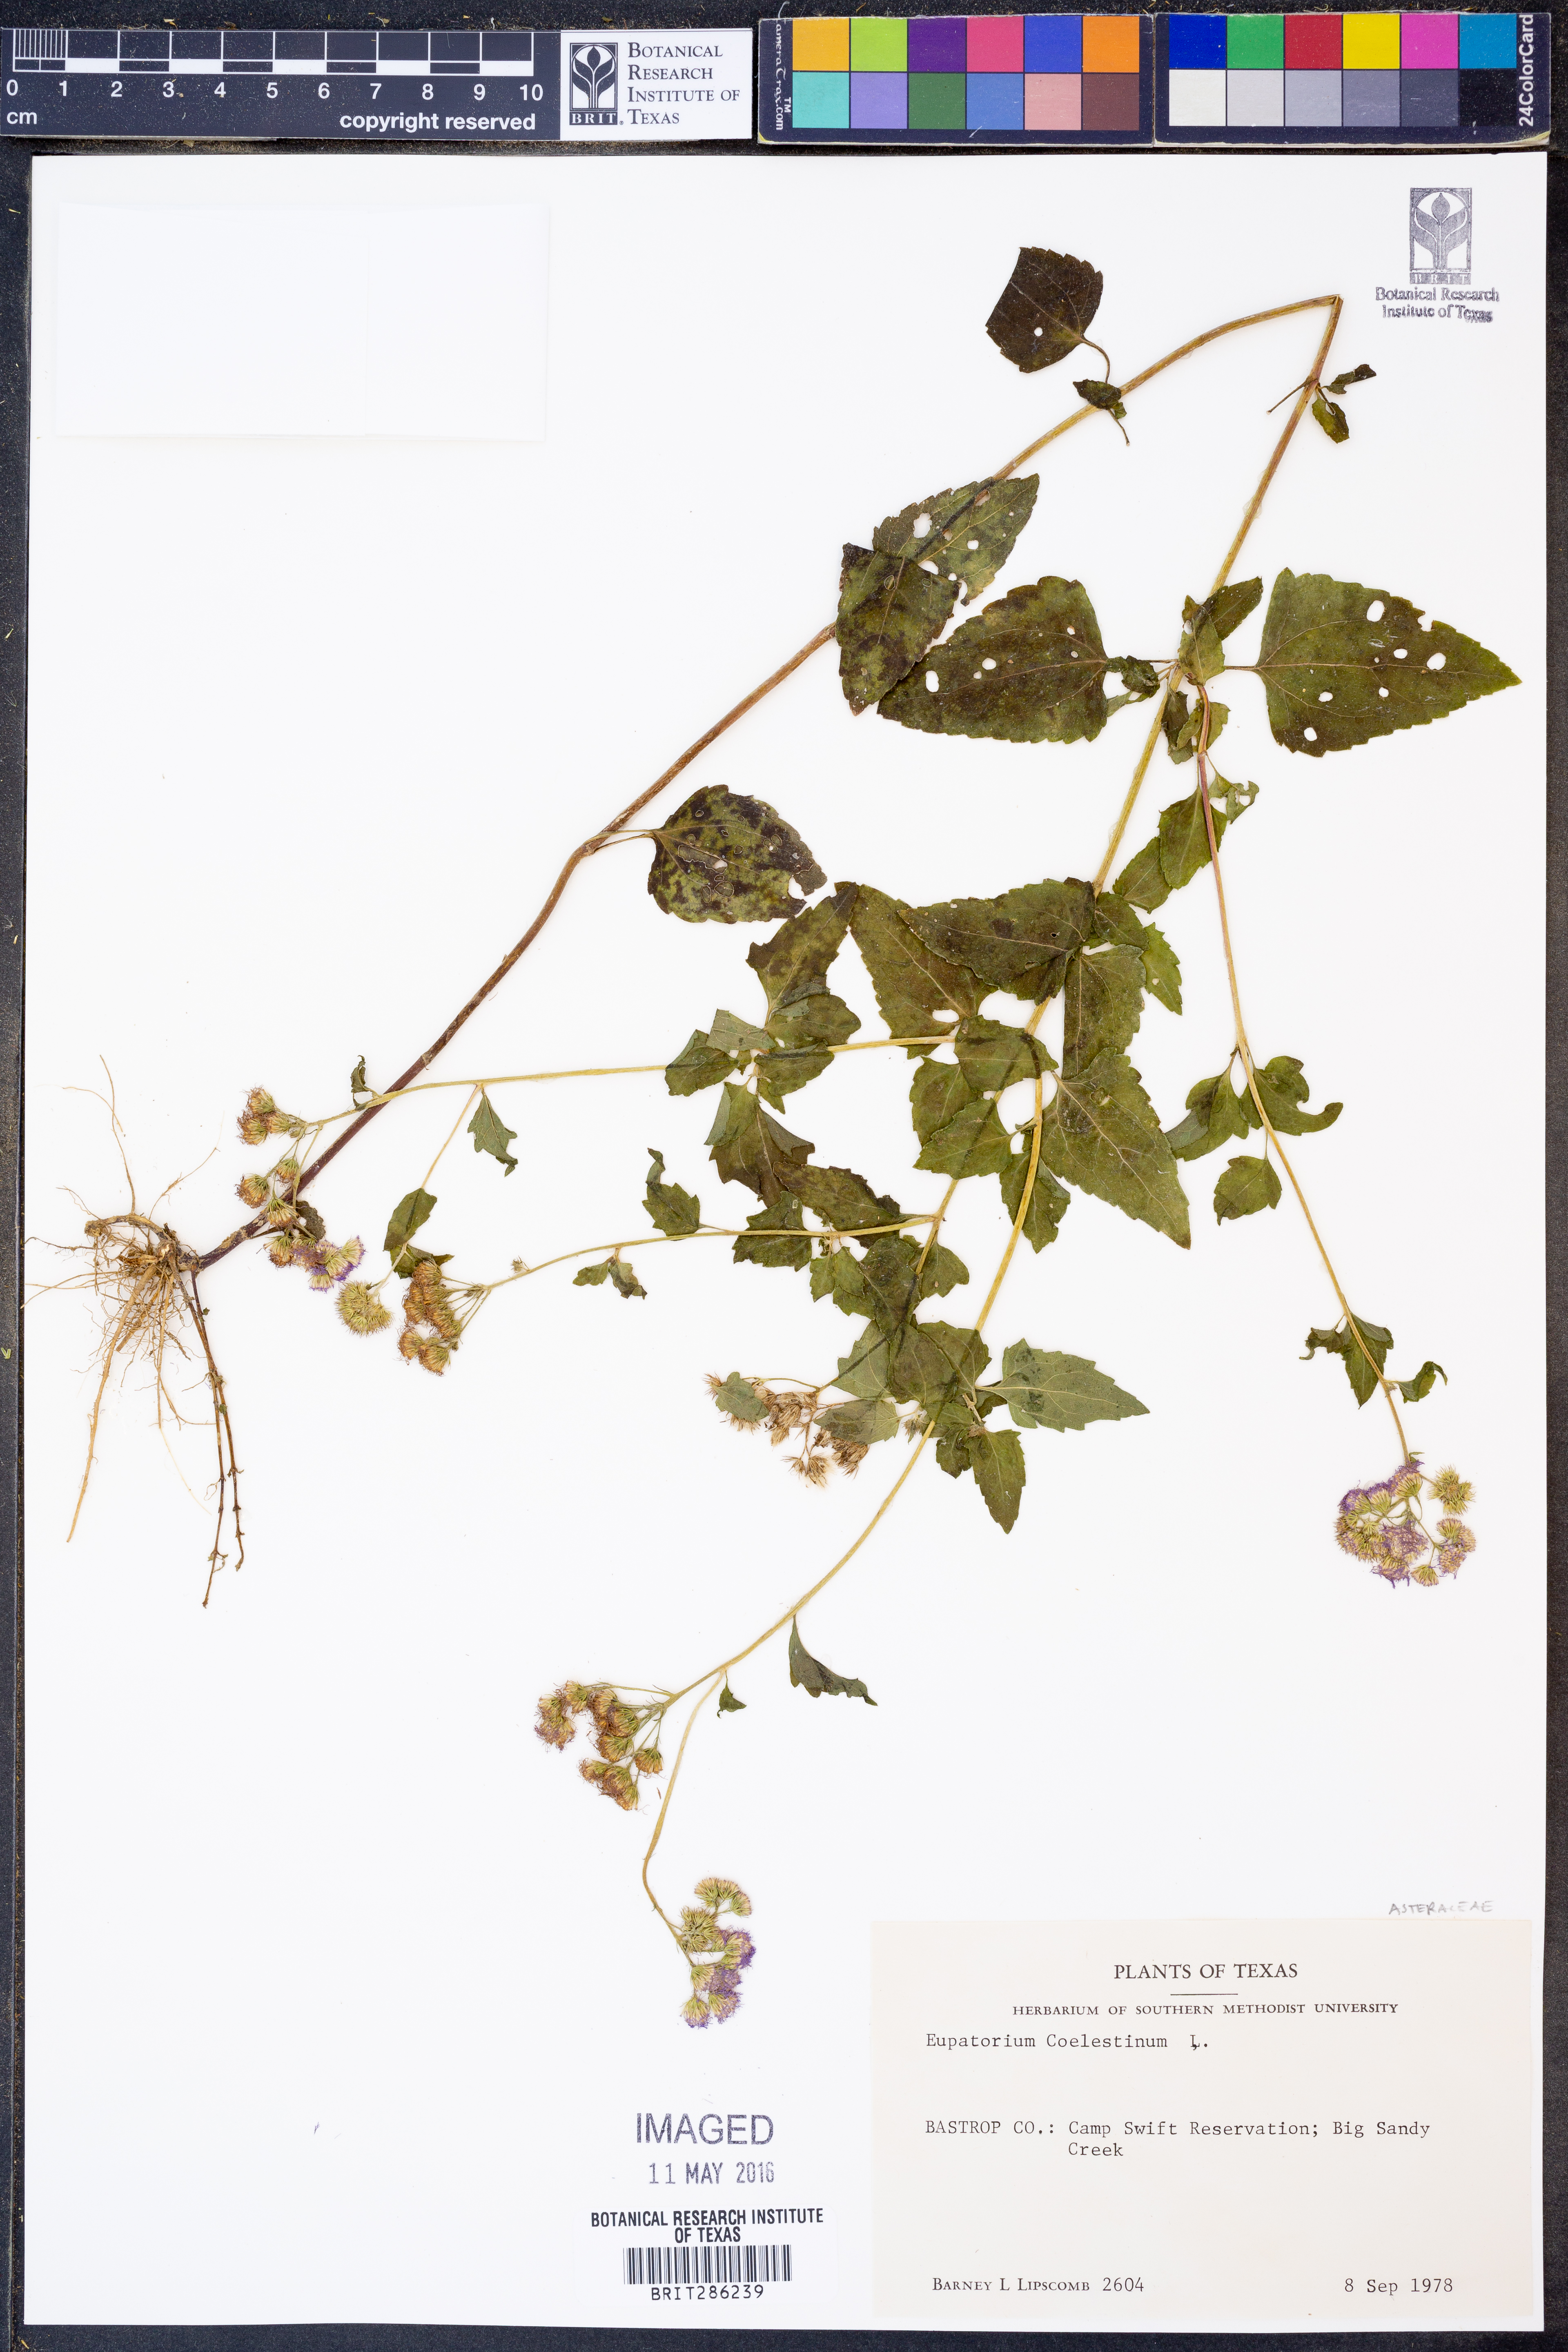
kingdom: Plantae
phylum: Tracheophyta
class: Magnoliopsida
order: Asterales
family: Asteraceae
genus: Conoclinium
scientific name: Conoclinium coelestinum
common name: Blue mistflower
